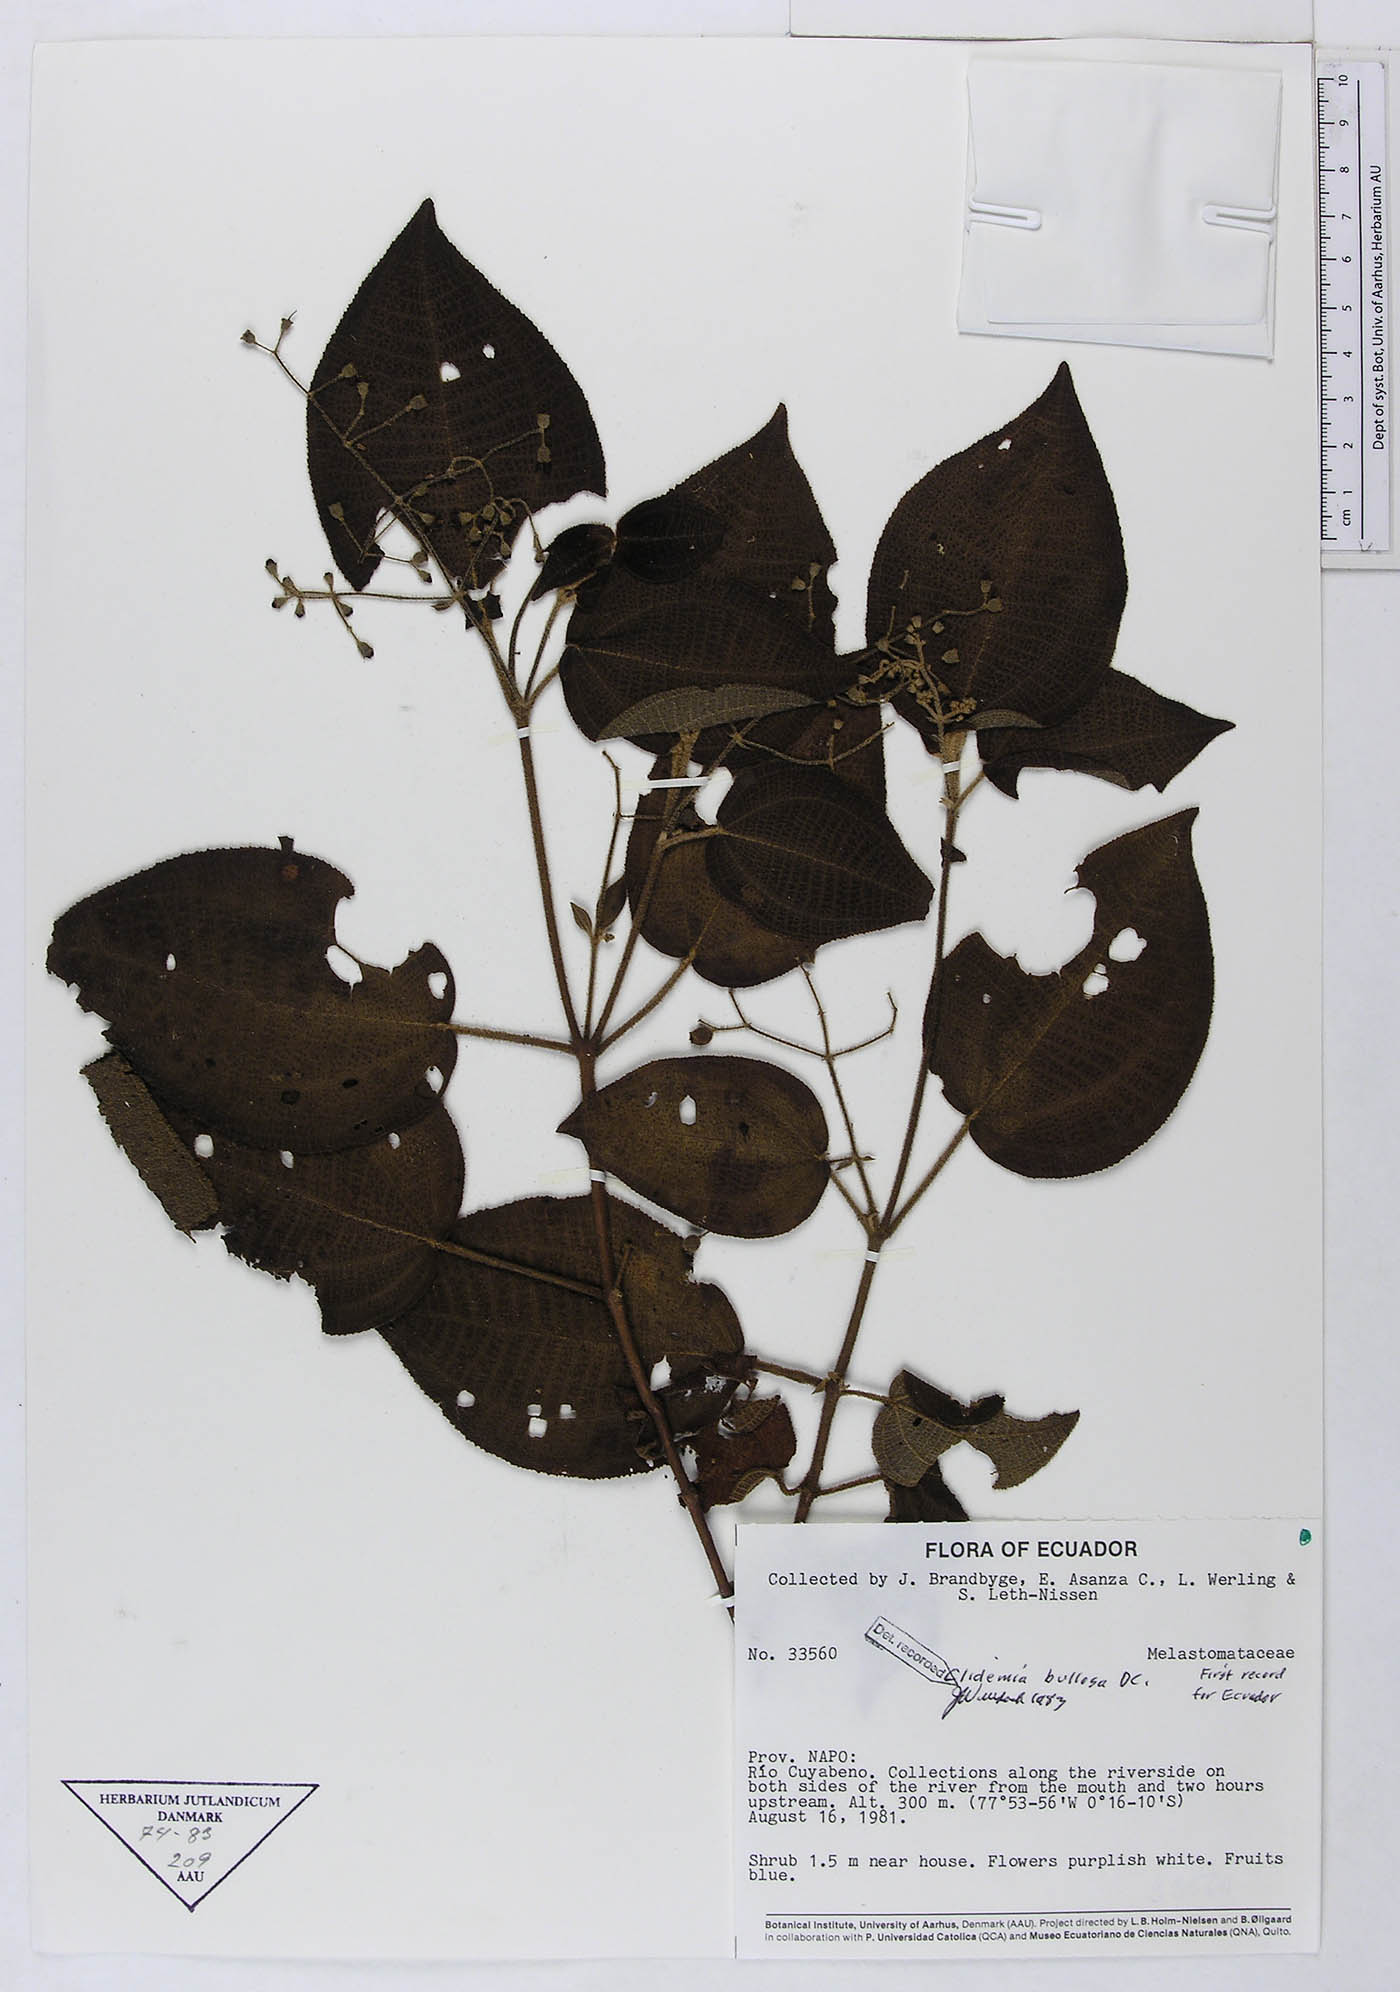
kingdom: Plantae
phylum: Tracheophyta
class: Magnoliopsida
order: Myrtales
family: Melastomataceae
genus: Miconia
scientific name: Miconia bullosa
